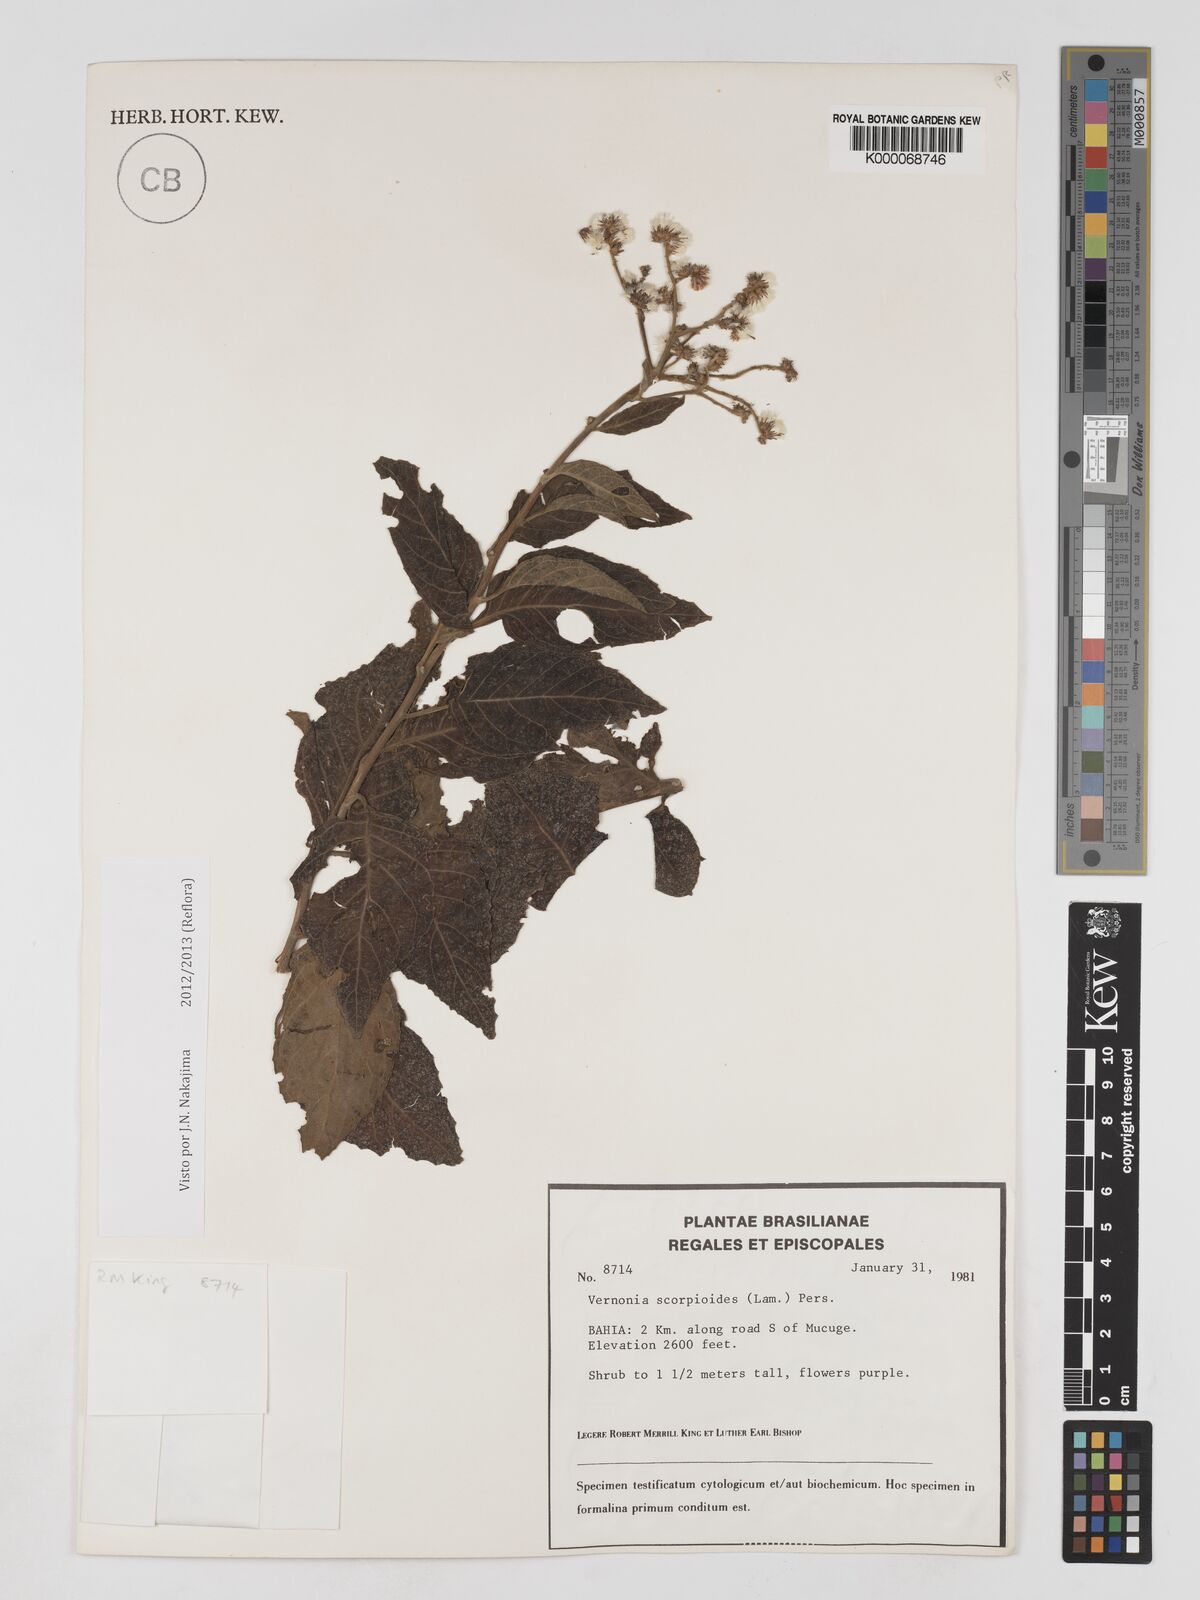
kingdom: Plantae
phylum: Tracheophyta
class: Magnoliopsida
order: Asterales
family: Asteraceae
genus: Cyrtocymura
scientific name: Cyrtocymura scorpioides
